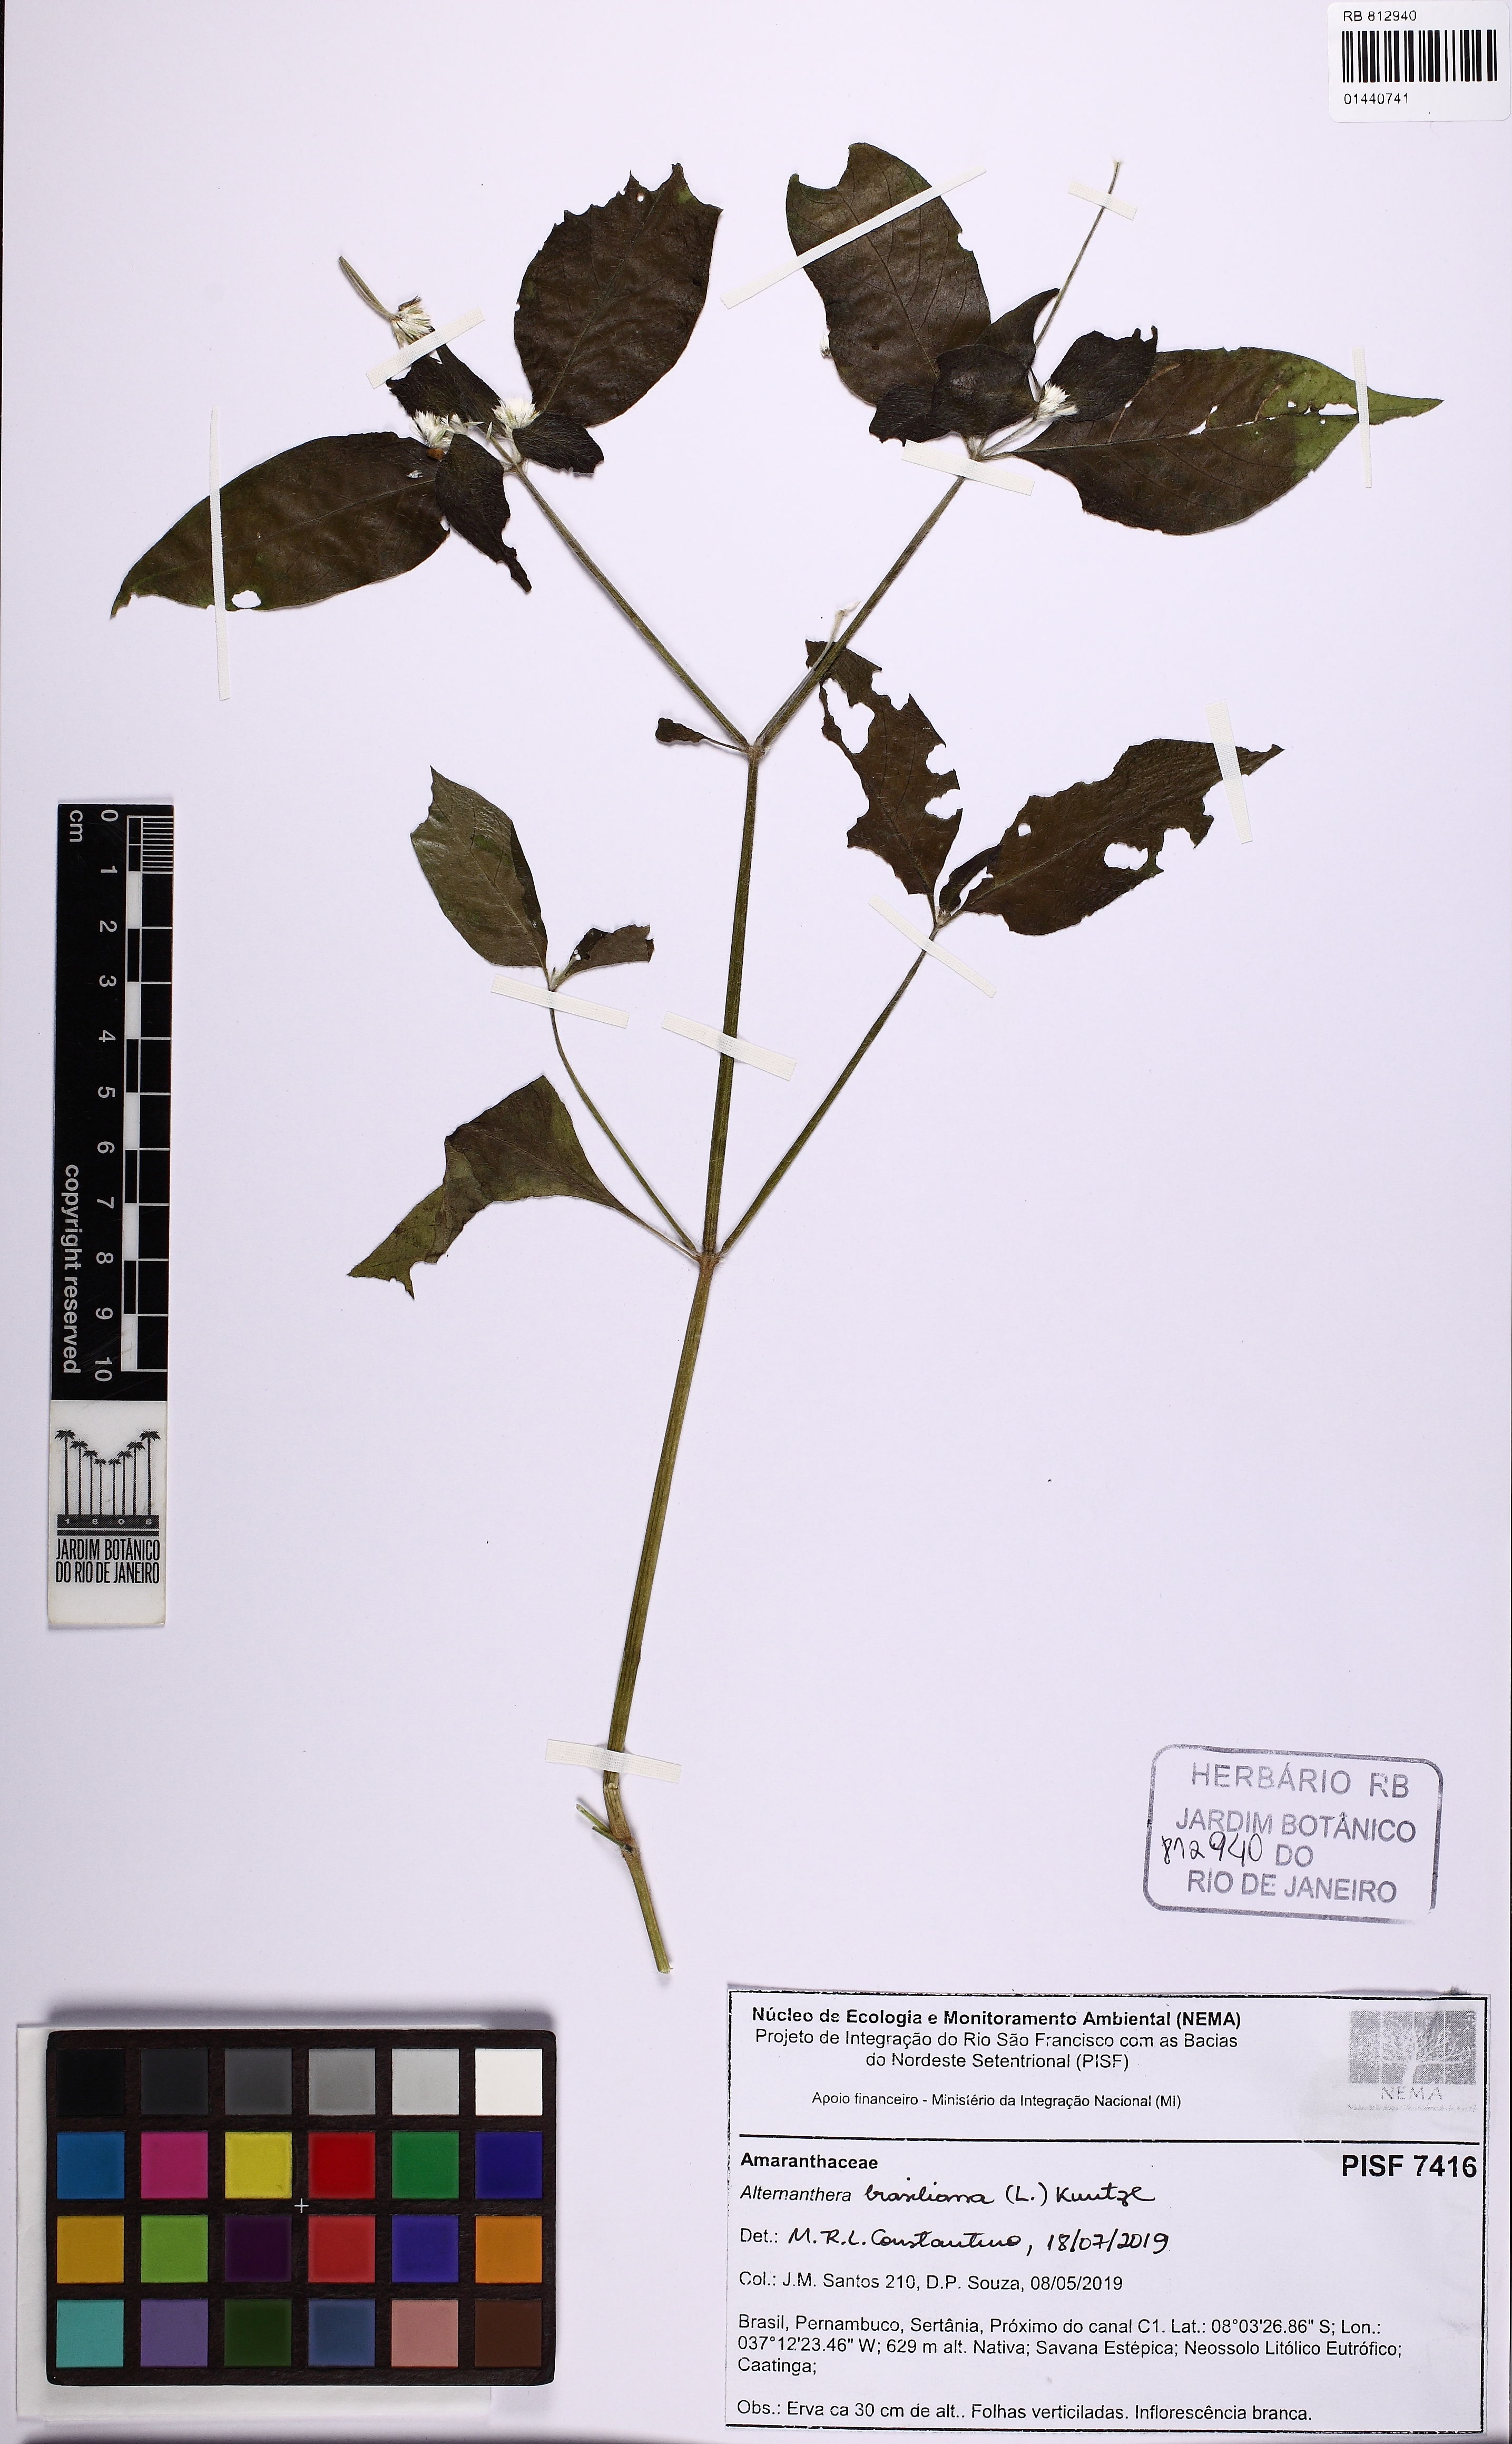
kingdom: Plantae
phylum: Tracheophyta
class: Magnoliopsida
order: Caryophyllales
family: Amaranthaceae
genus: Alternanthera
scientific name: Alternanthera brasiliana
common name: Brazilian joyweed
